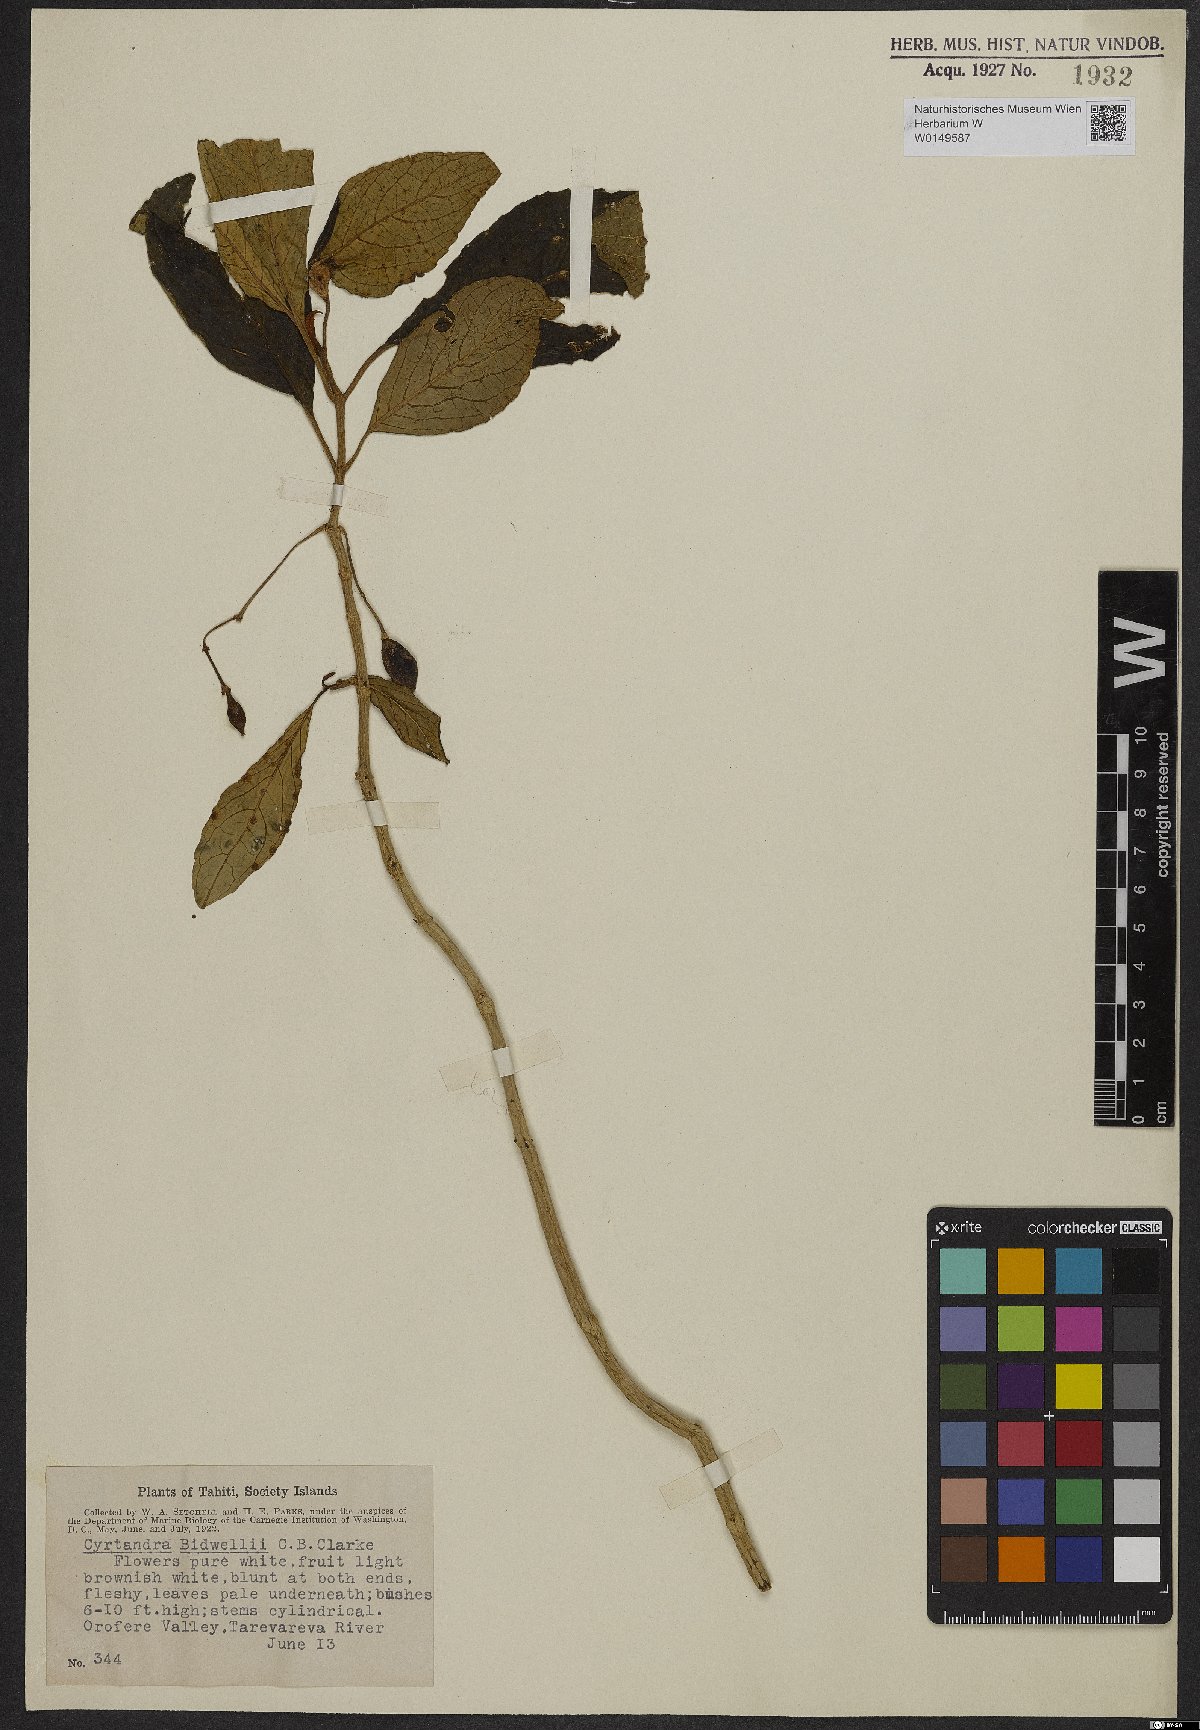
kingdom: Plantae
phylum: Tracheophyta
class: Magnoliopsida
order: Lamiales
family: Gesneriaceae
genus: Cyrtandra
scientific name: Cyrtandra bidwillii
